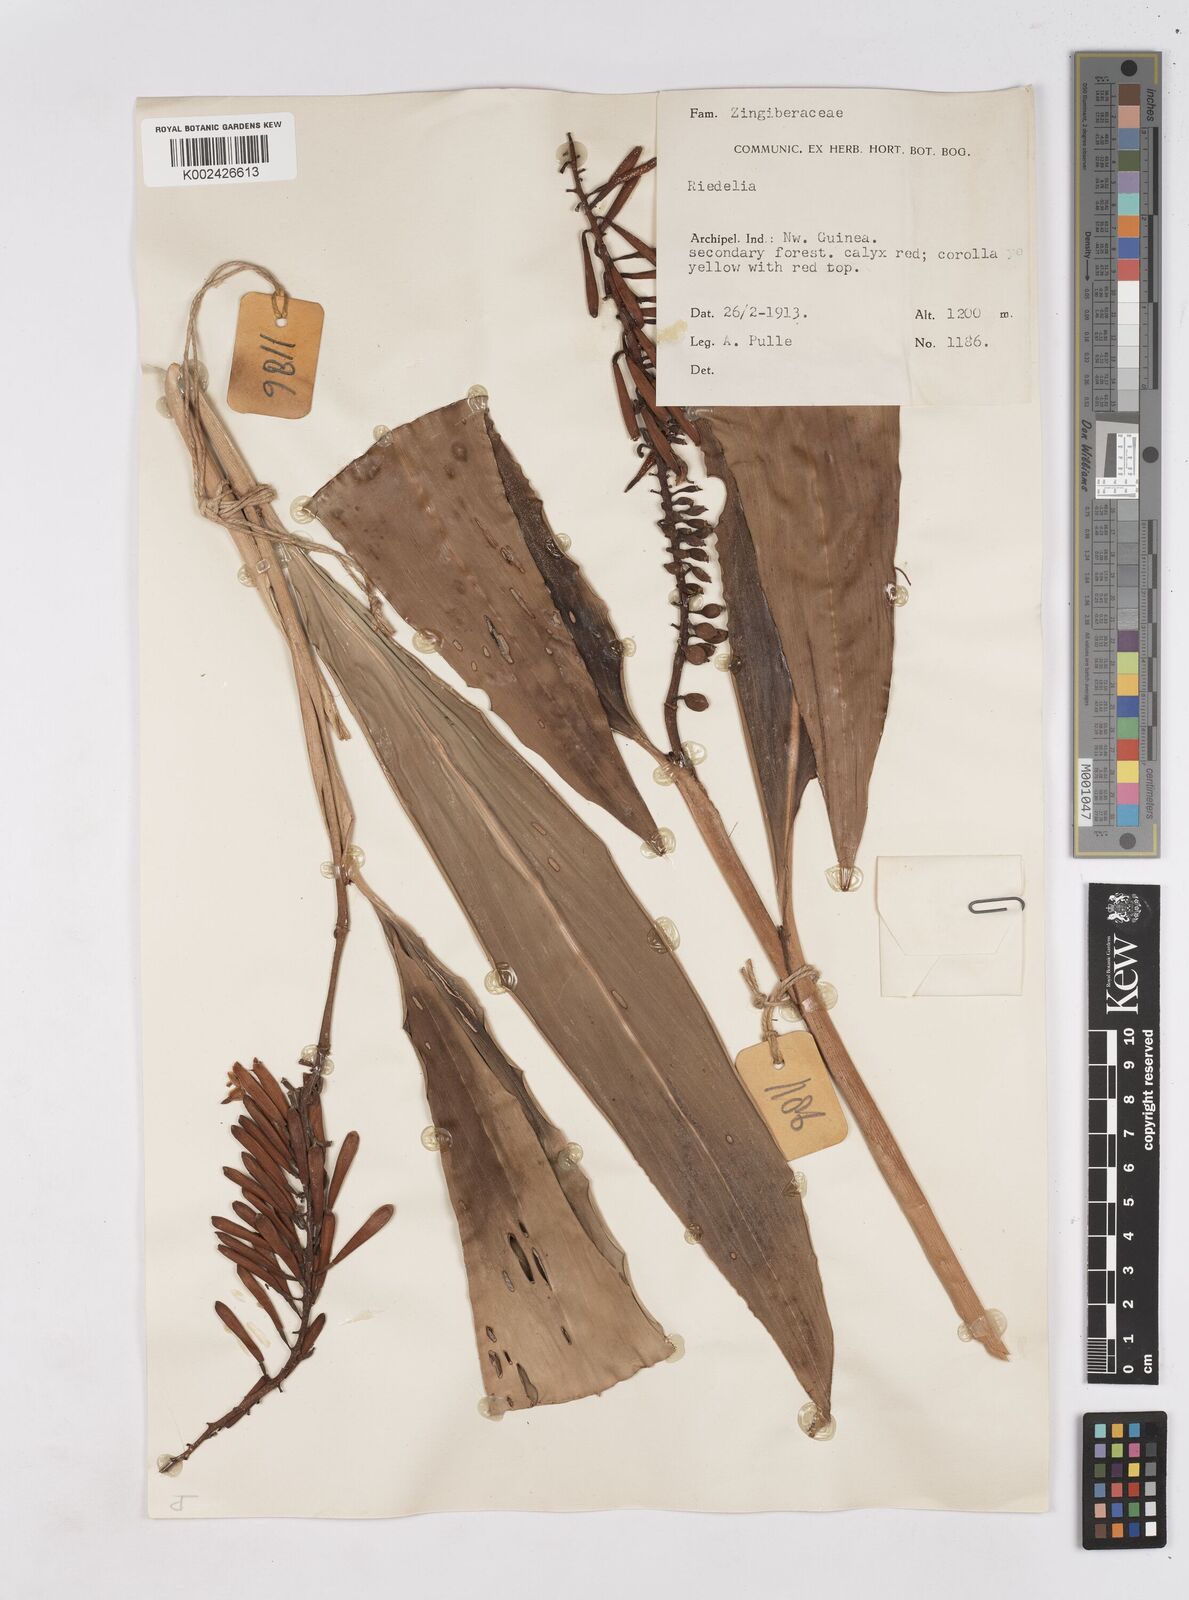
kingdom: Plantae
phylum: Tracheophyta
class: Liliopsida
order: Zingiberales
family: Zingiberaceae
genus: Riedelia
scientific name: Riedelia
